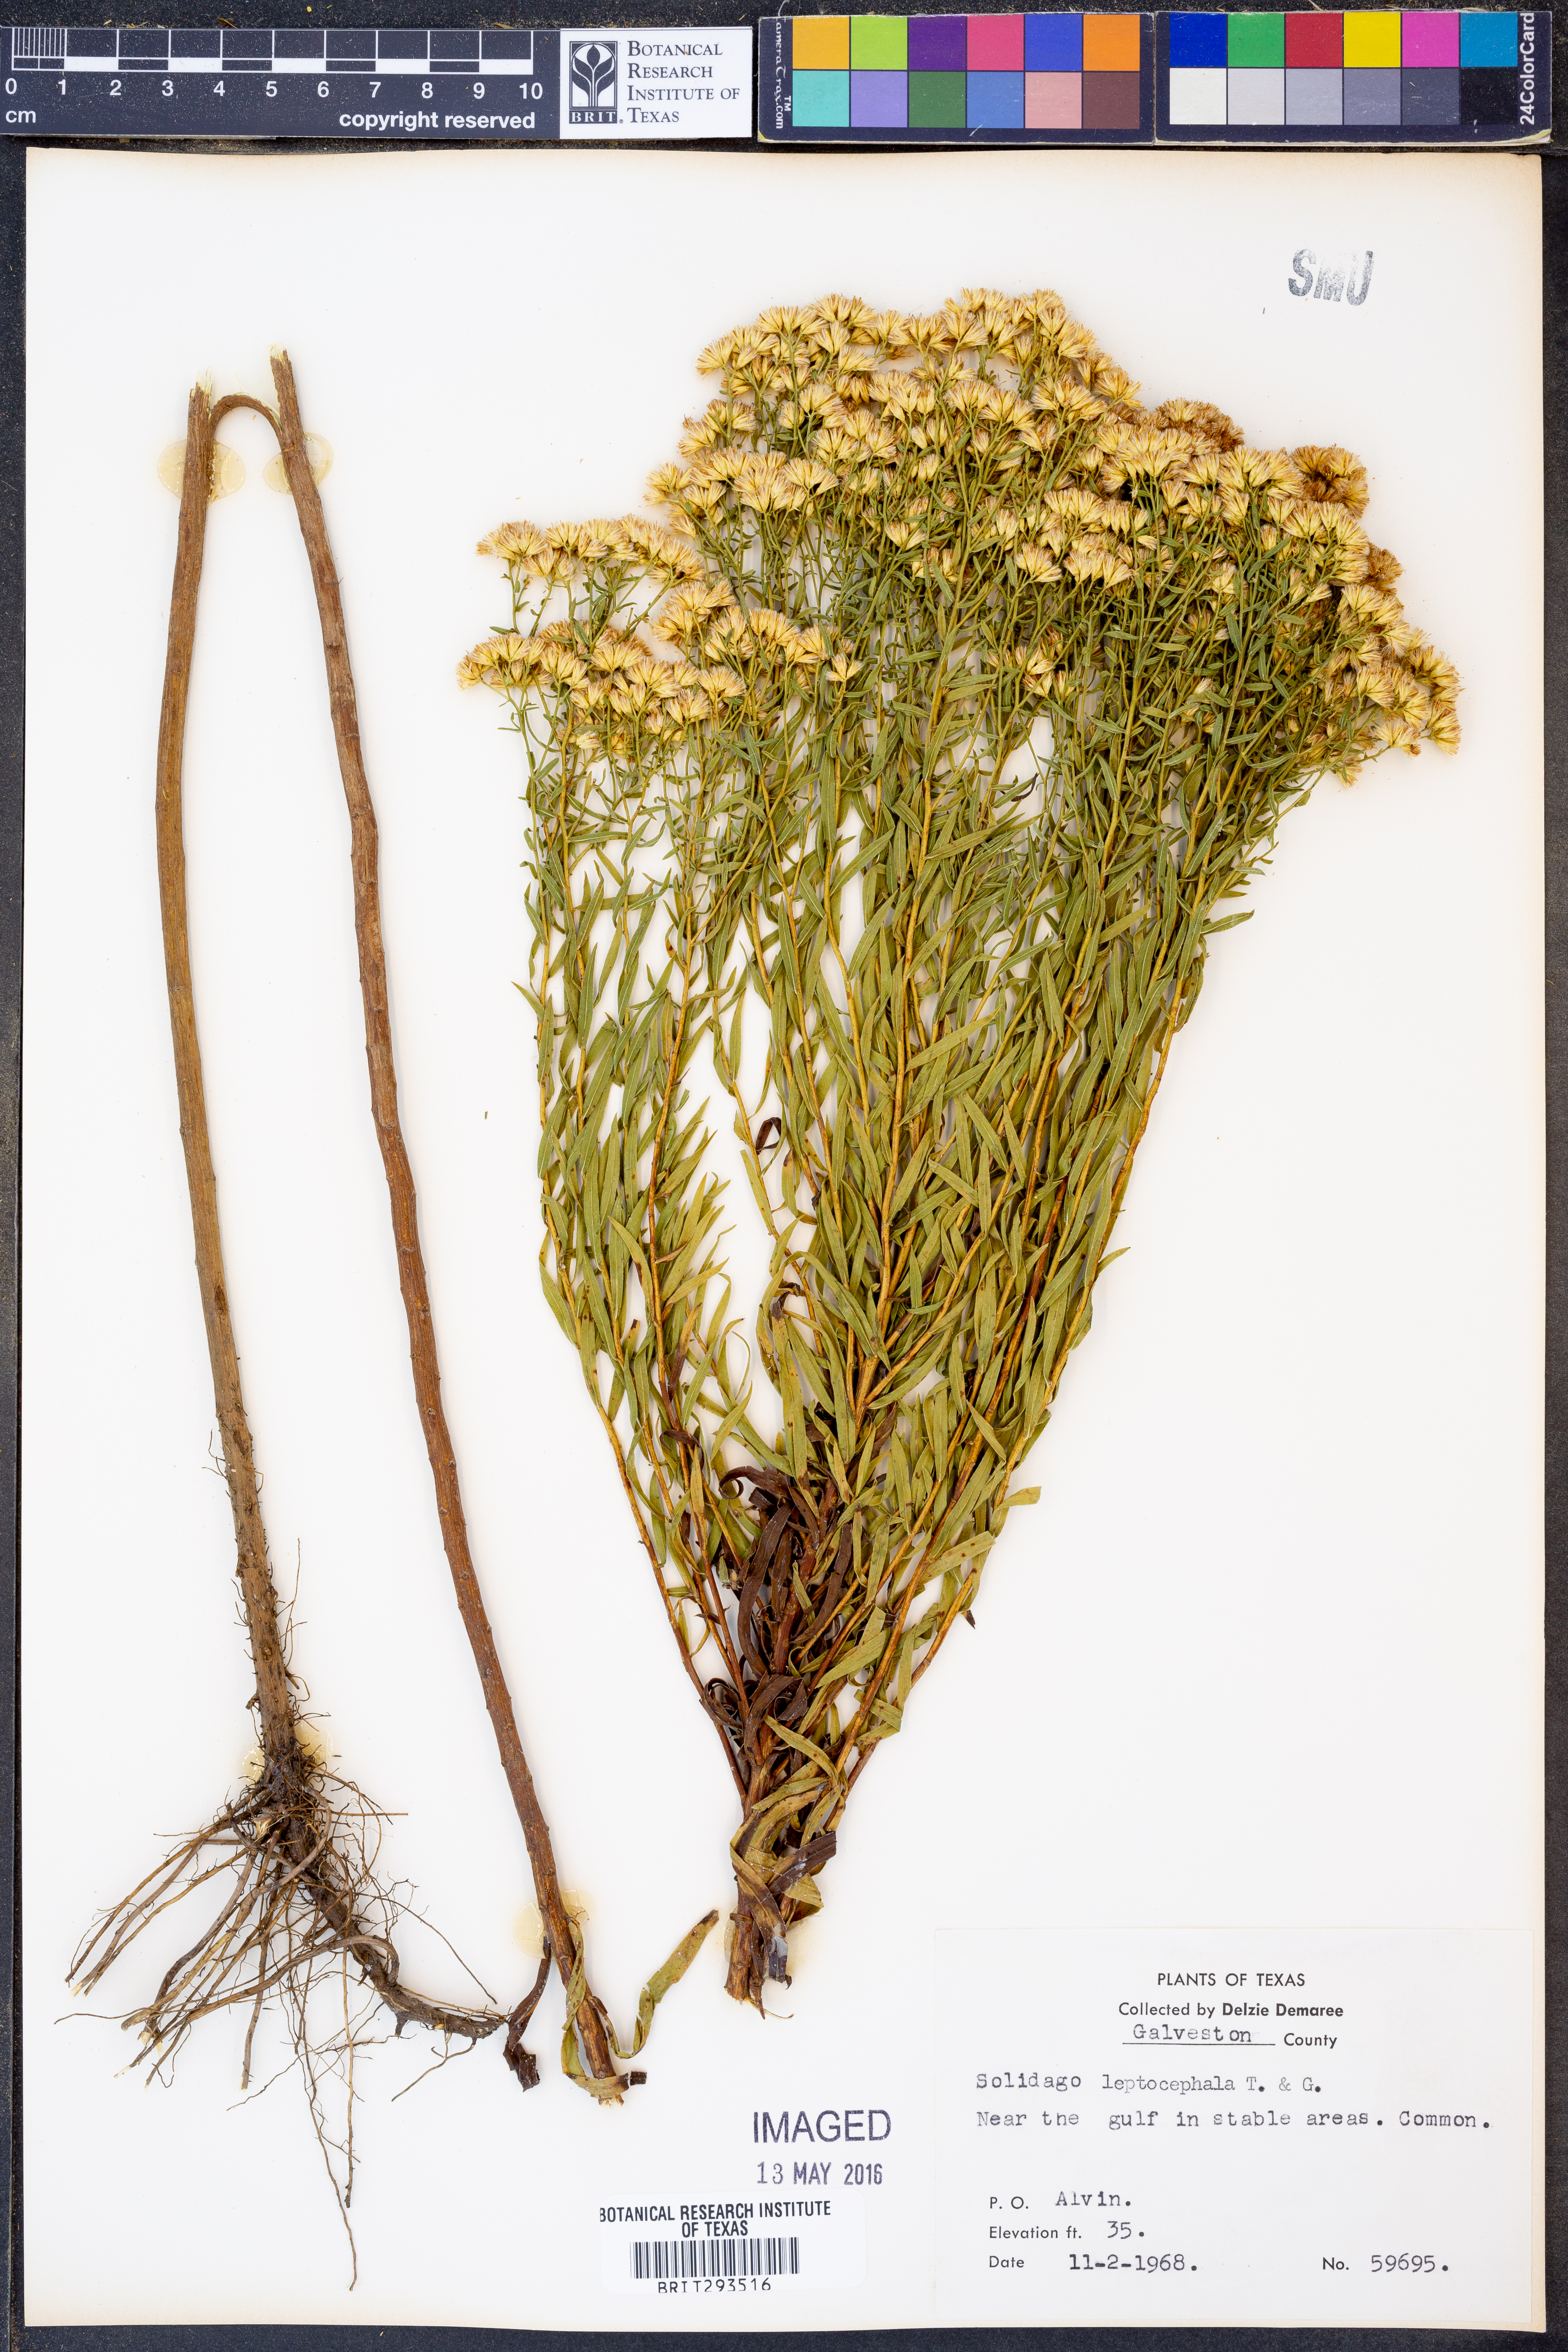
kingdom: Plantae
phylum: Tracheophyta
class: Magnoliopsida
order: Asterales
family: Asteraceae
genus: Euthamia
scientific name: Euthamia leptocephala
